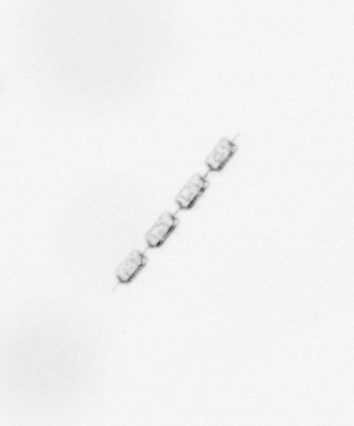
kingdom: Chromista
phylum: Ochrophyta
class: Bacillariophyceae
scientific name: Bacillariophyceae
